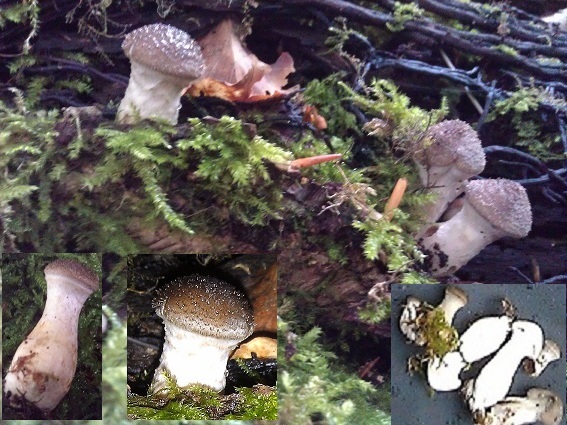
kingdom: Fungi
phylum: Basidiomycota
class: Agaricomycetes
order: Agaricales
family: Physalacriaceae
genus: Armillaria
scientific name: Armillaria lutea
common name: køllestokket honningsvamp
